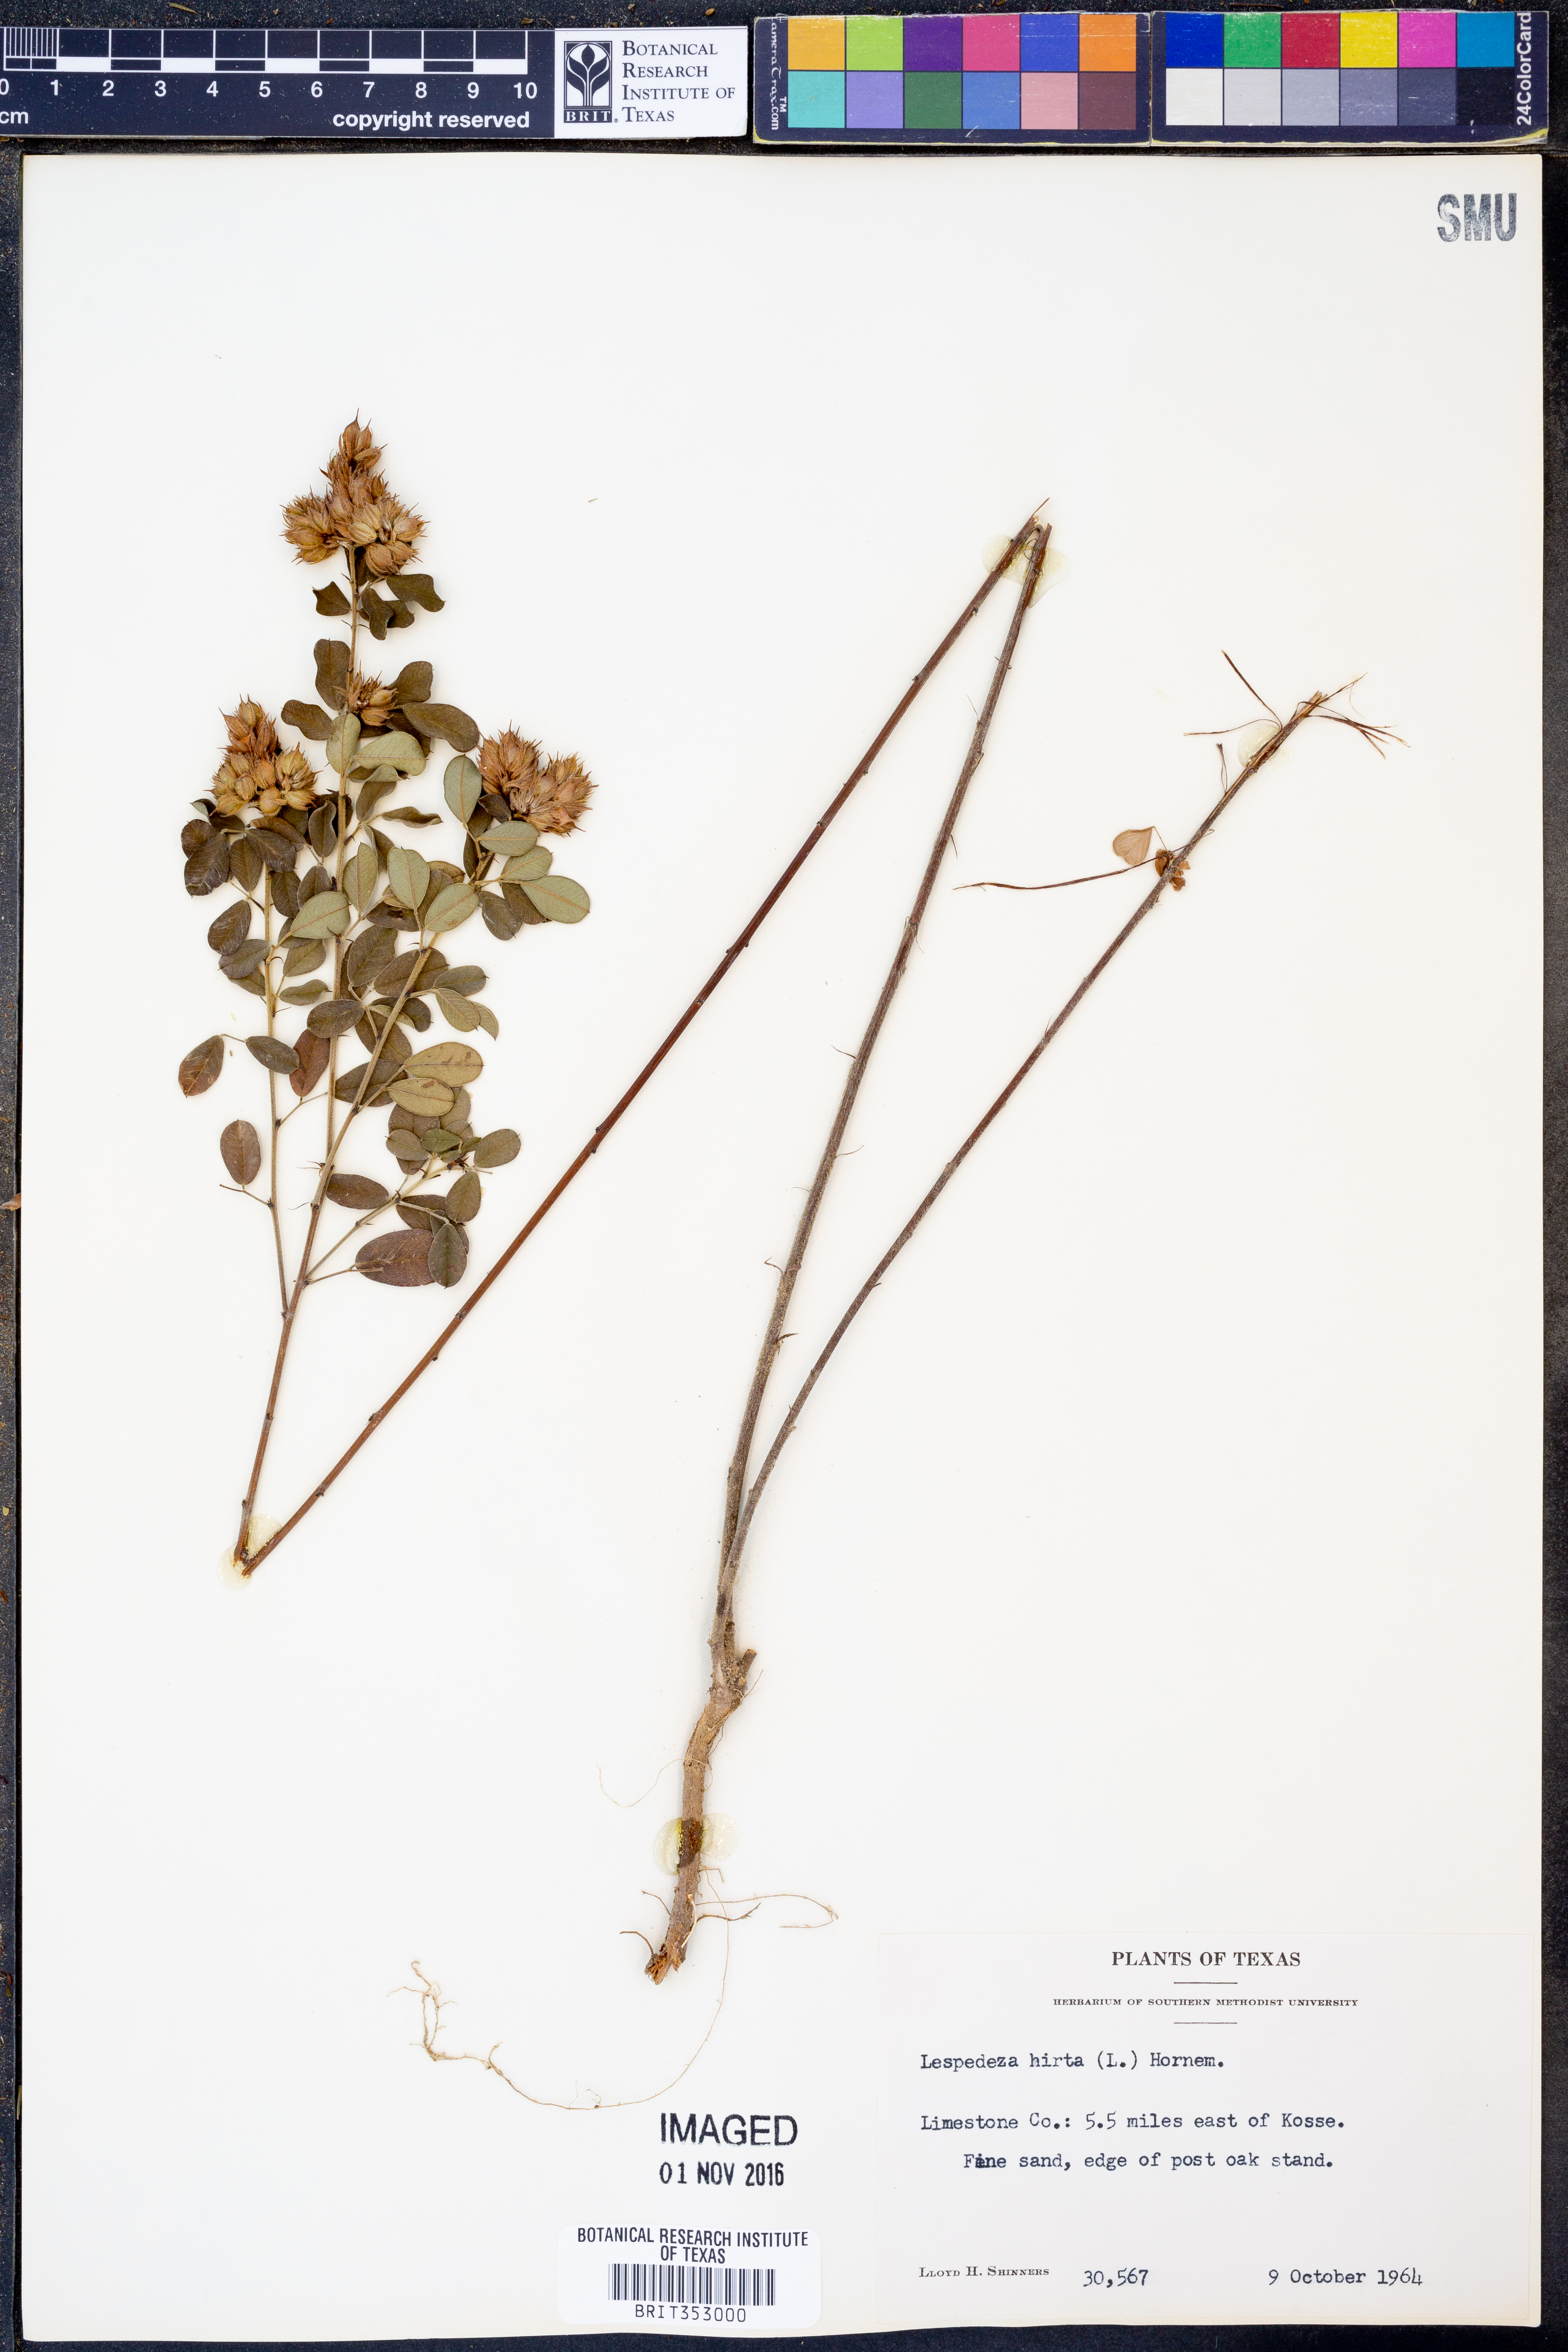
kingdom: Plantae
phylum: Tracheophyta
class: Magnoliopsida
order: Fabales
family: Fabaceae
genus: Lespedeza
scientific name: Lespedeza hirta
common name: Hairy lespedeza
